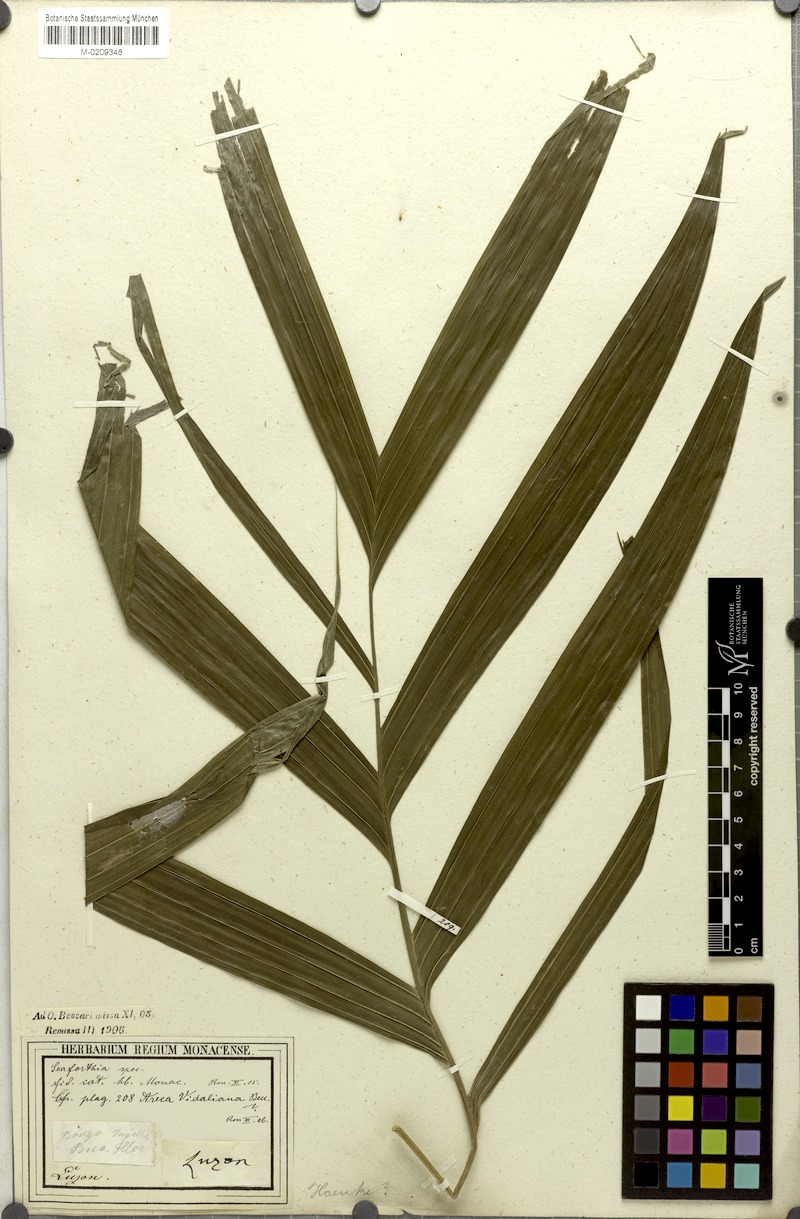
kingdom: Plantae
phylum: Tracheophyta
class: Liliopsida
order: Arecales
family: Arecaceae
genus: Areca
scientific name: Areca vidaliana
